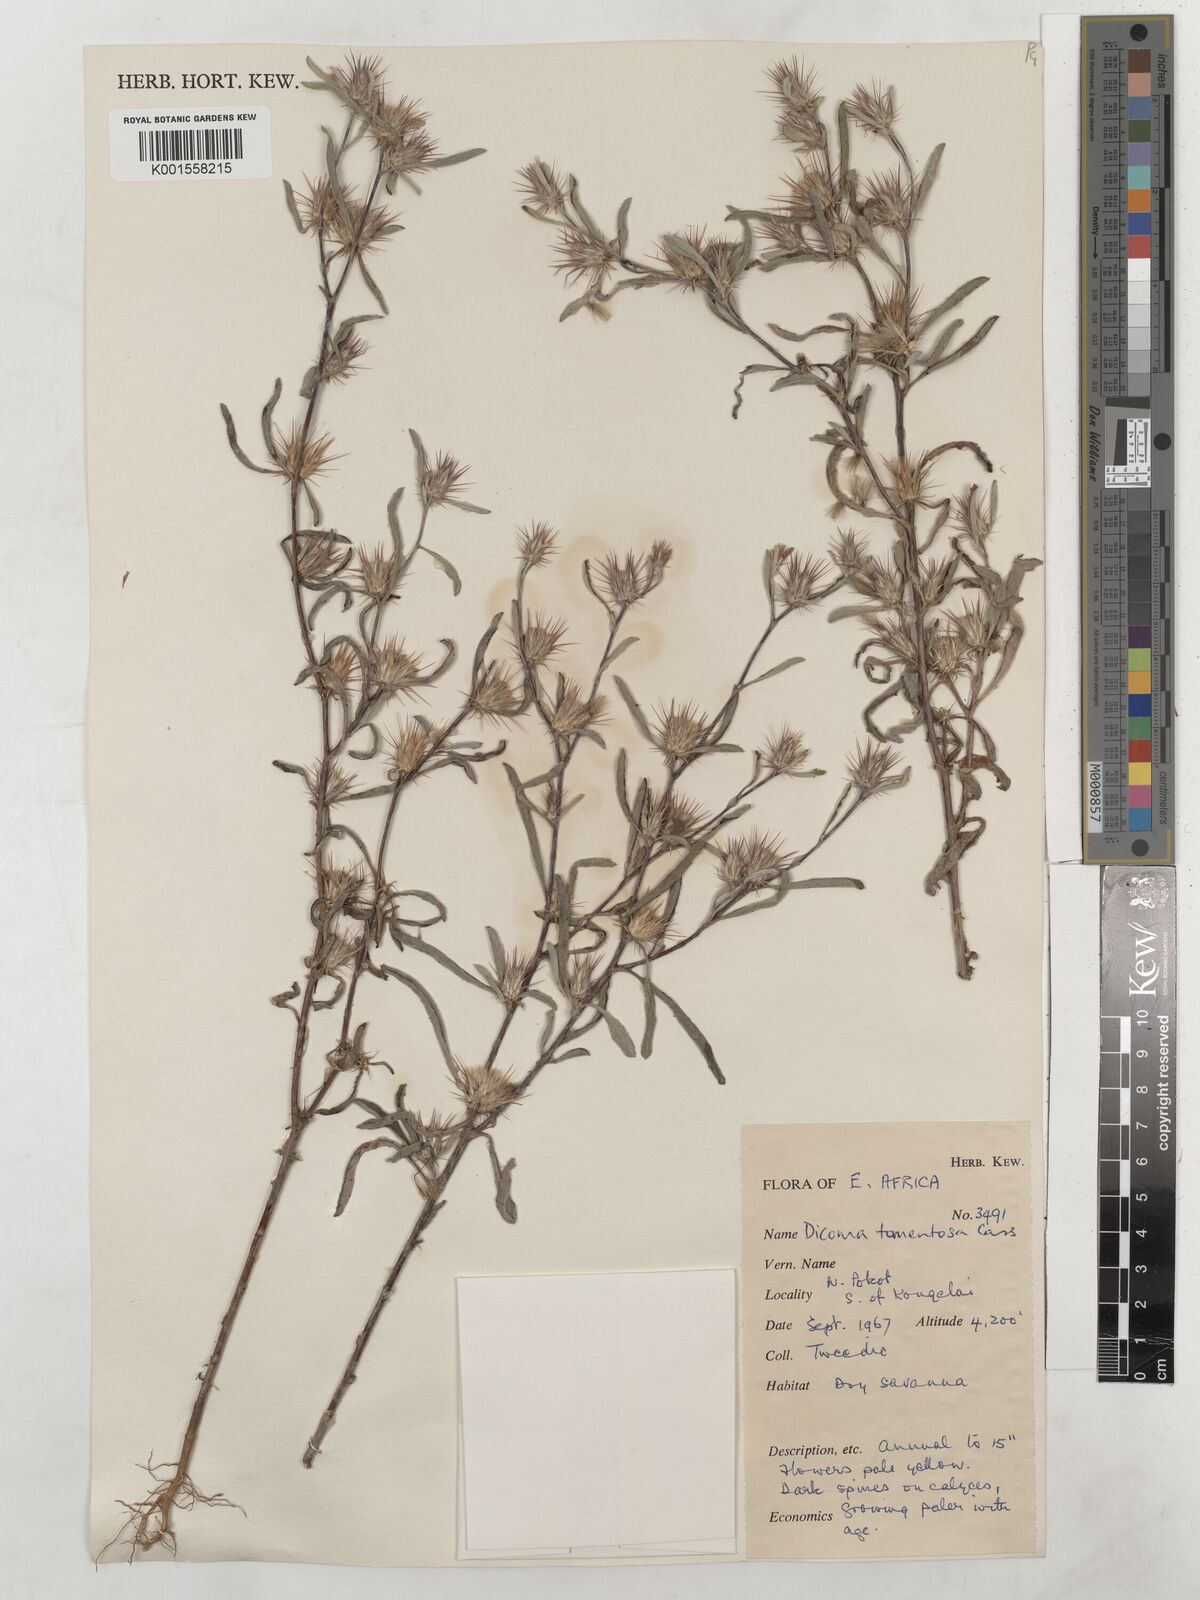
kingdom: Plantae
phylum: Tracheophyta
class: Magnoliopsida
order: Asterales
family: Asteraceae
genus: Dicoma
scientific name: Dicoma tomentosa
